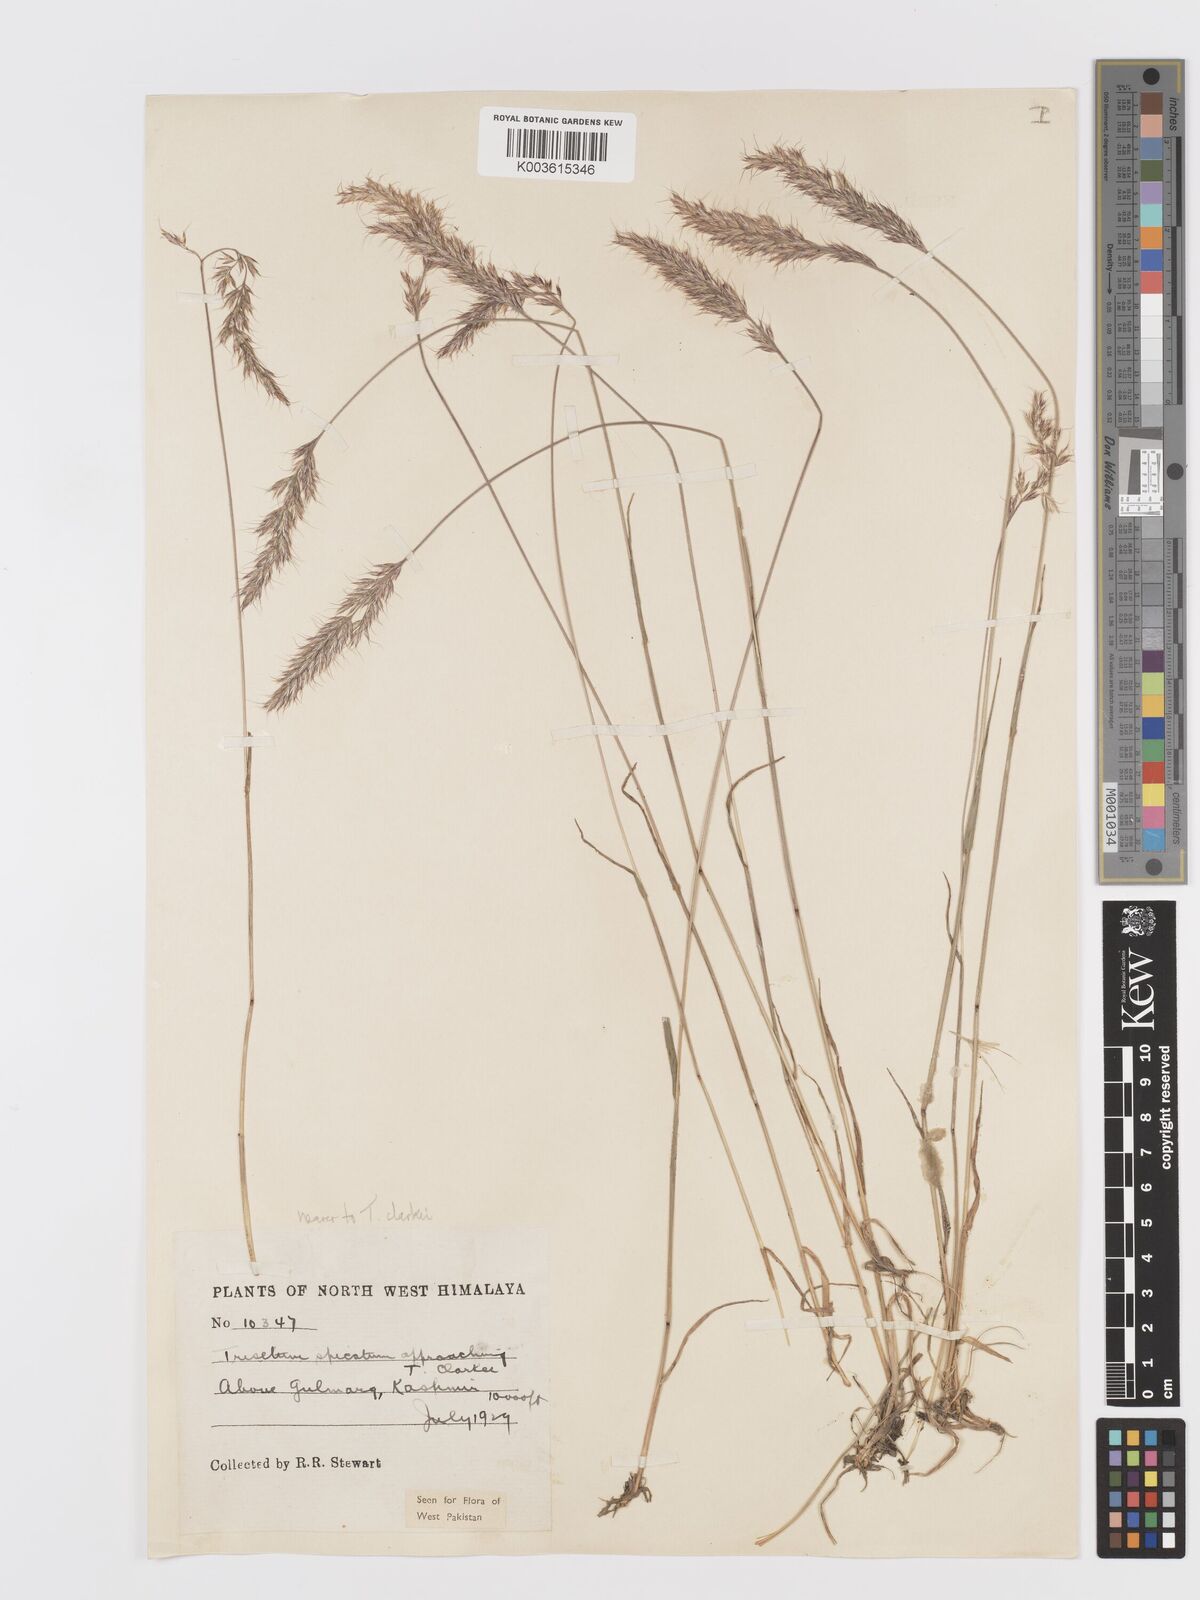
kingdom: Plantae
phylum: Tracheophyta
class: Liliopsida
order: Poales
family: Poaceae
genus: Trisetum
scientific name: Trisetum clarkei
